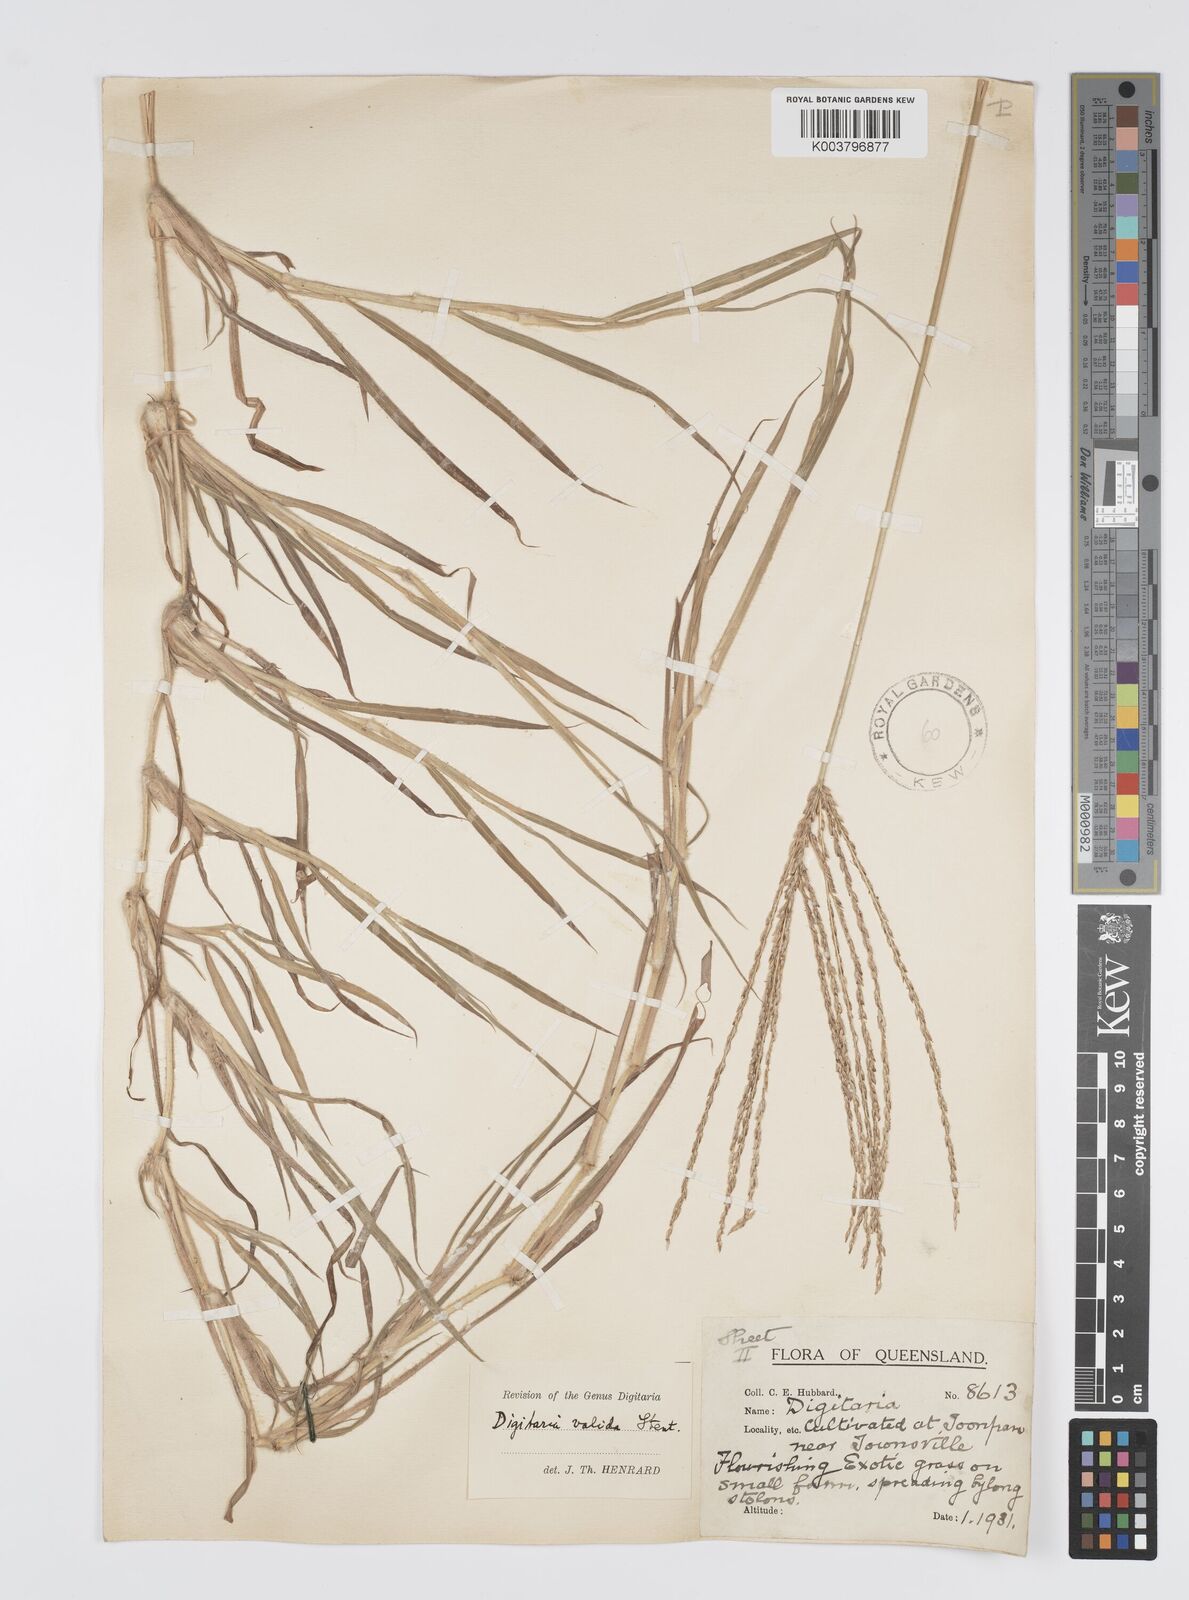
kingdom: Plantae
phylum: Tracheophyta
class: Liliopsida
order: Poales
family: Poaceae
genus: Digitaria
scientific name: Digitaria eriantha
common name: Digitgrass
